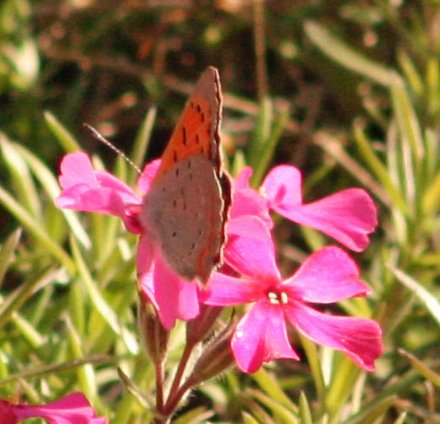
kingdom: Animalia
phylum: Arthropoda
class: Insecta
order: Lepidoptera
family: Lycaenidae
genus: Lycaena
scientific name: Lycaena phlaeas
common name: American Copper
